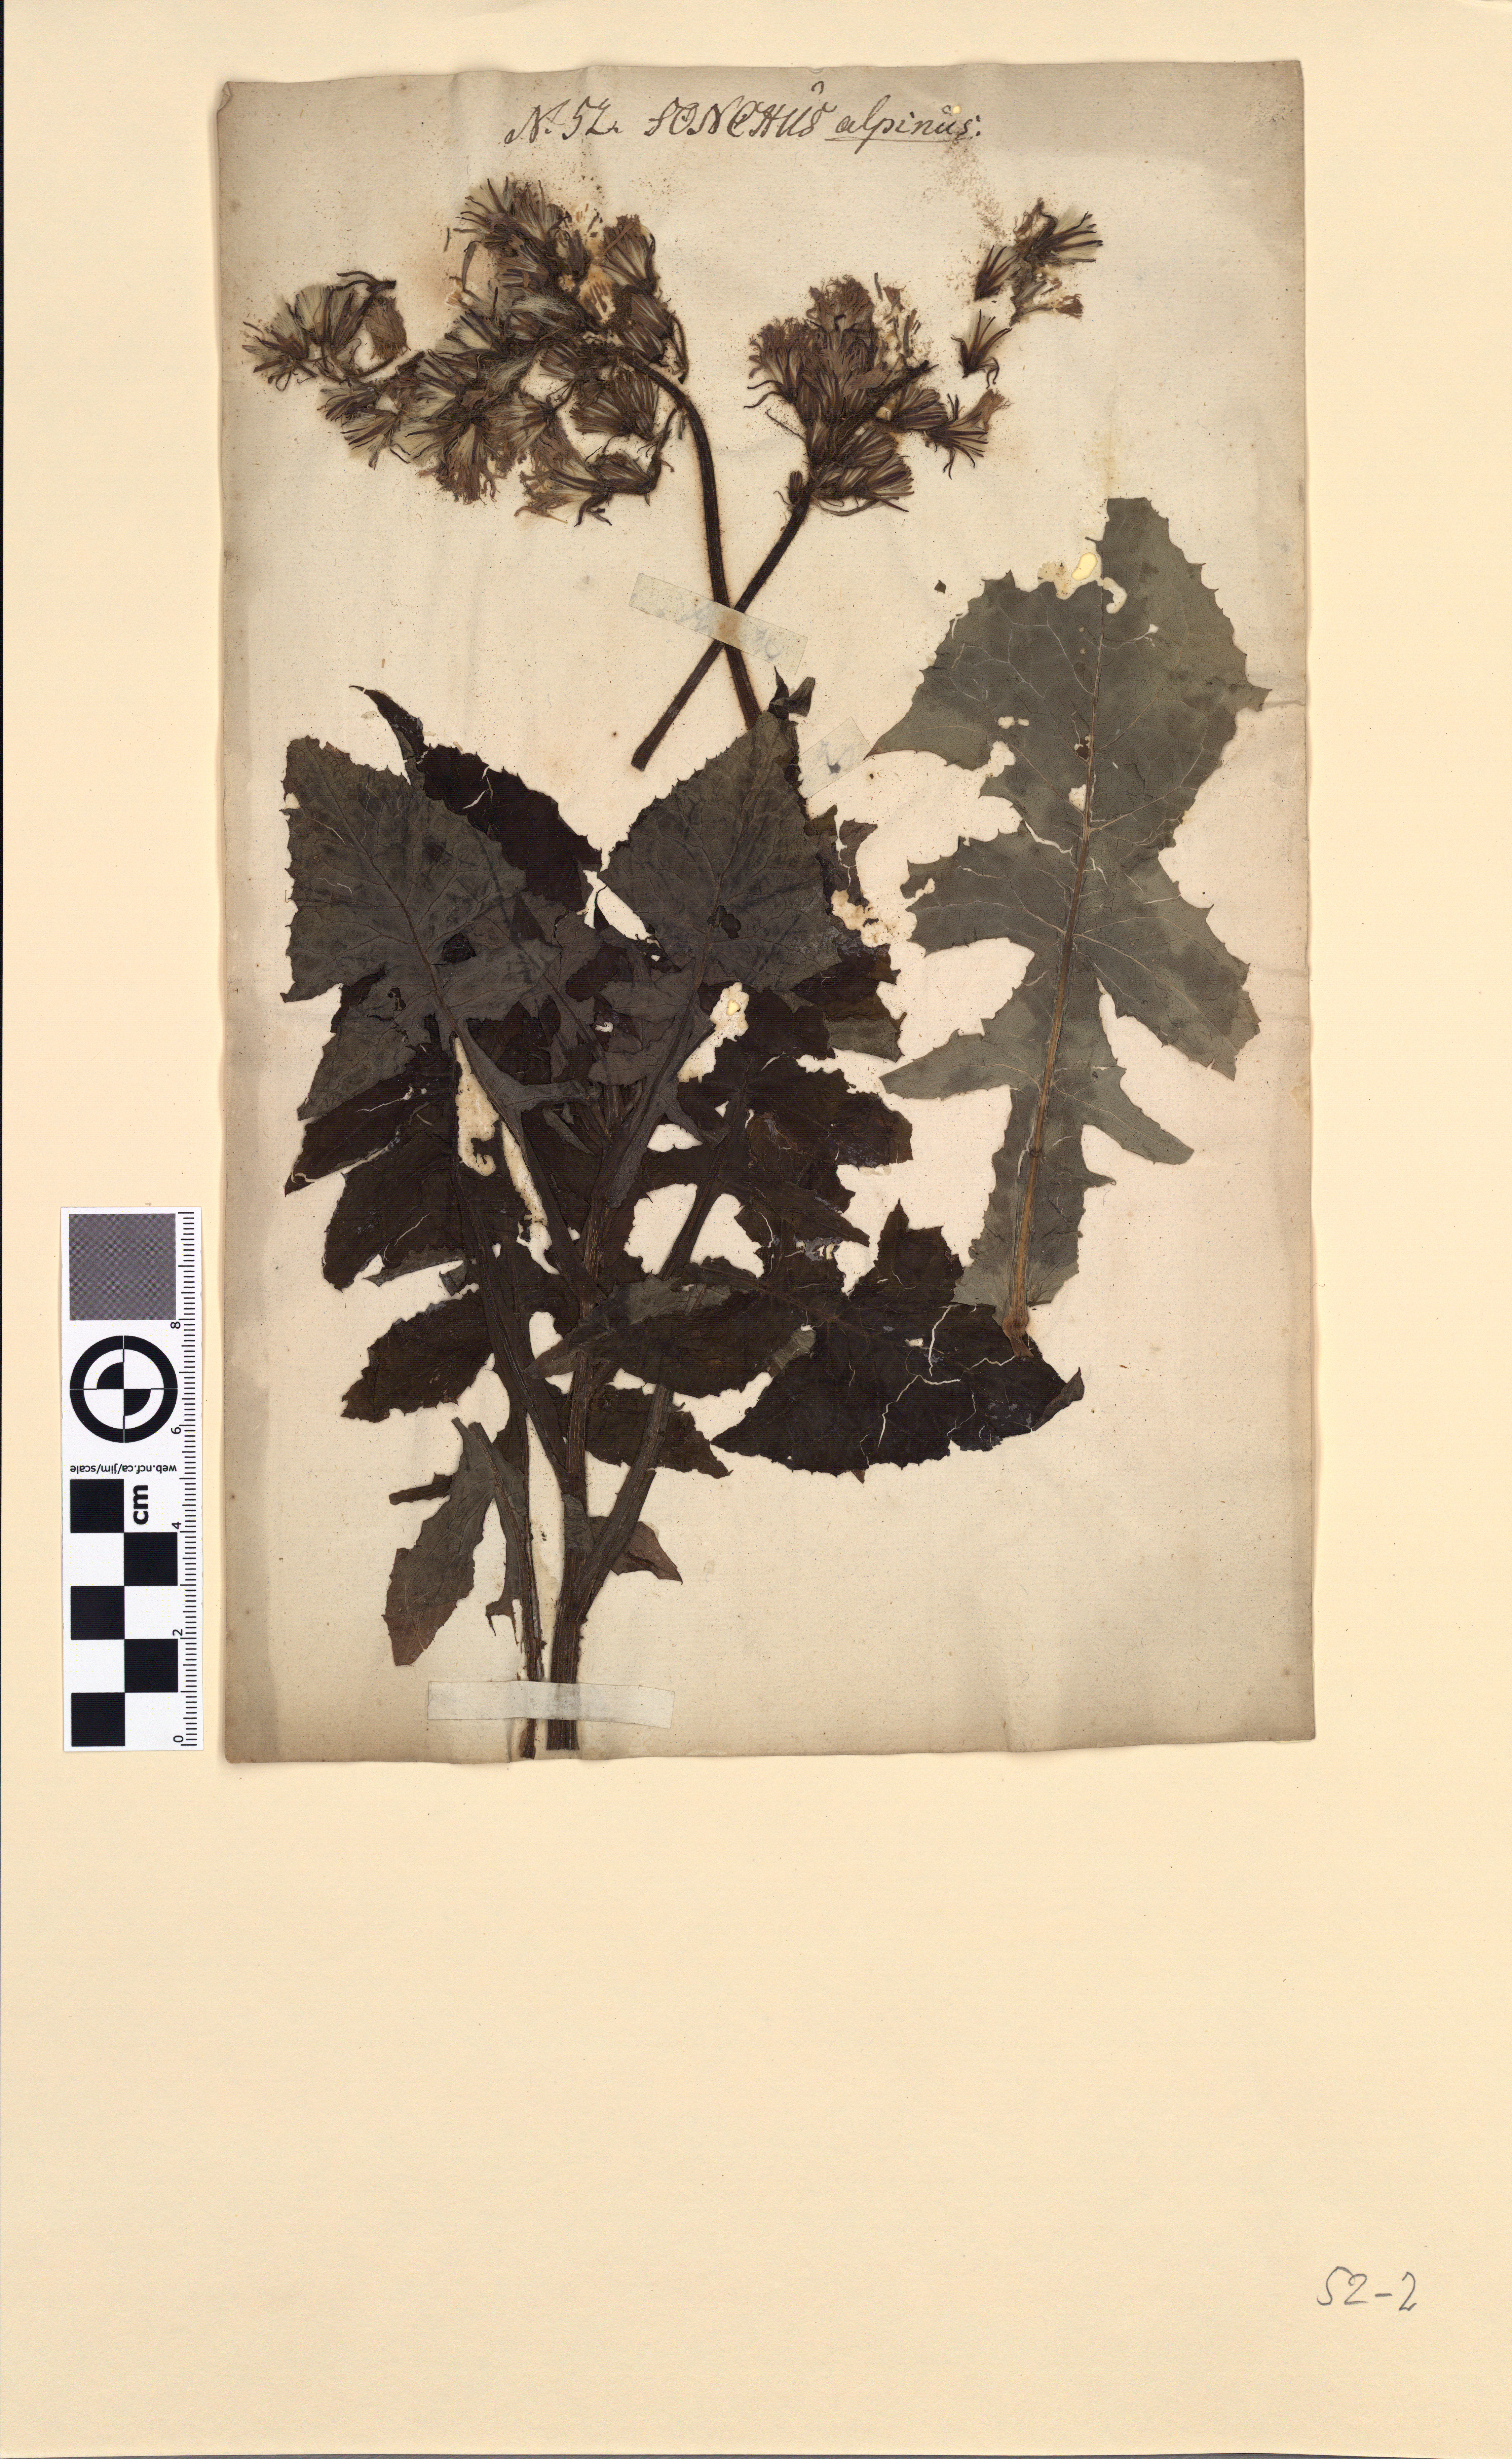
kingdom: Plantae
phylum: Tracheophyta
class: Magnoliopsida
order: Asterales
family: Asteraceae
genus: Cicerbita
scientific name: Cicerbita alpina
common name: Alpine blue-sow-thistle
